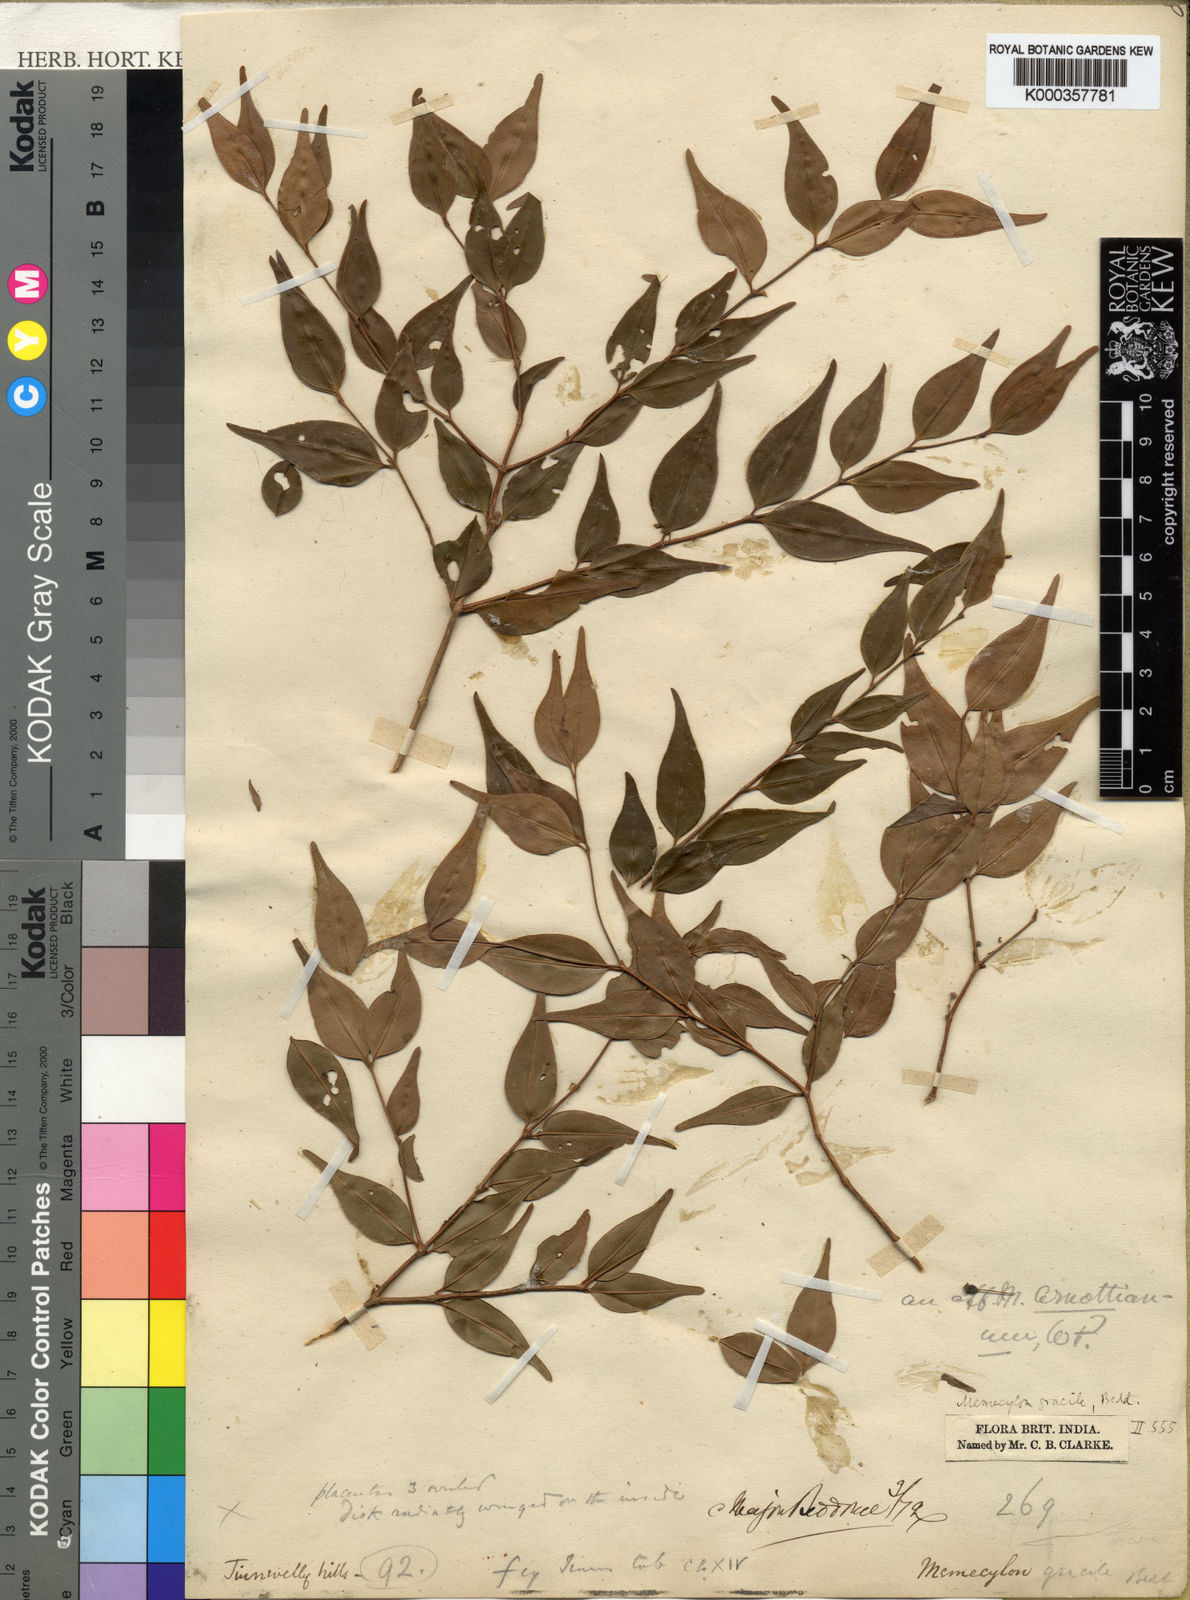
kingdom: Plantae
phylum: Tracheophyta
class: Magnoliopsida
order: Myrtales
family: Melastomataceae
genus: Memecylon
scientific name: Memecylon gracile
